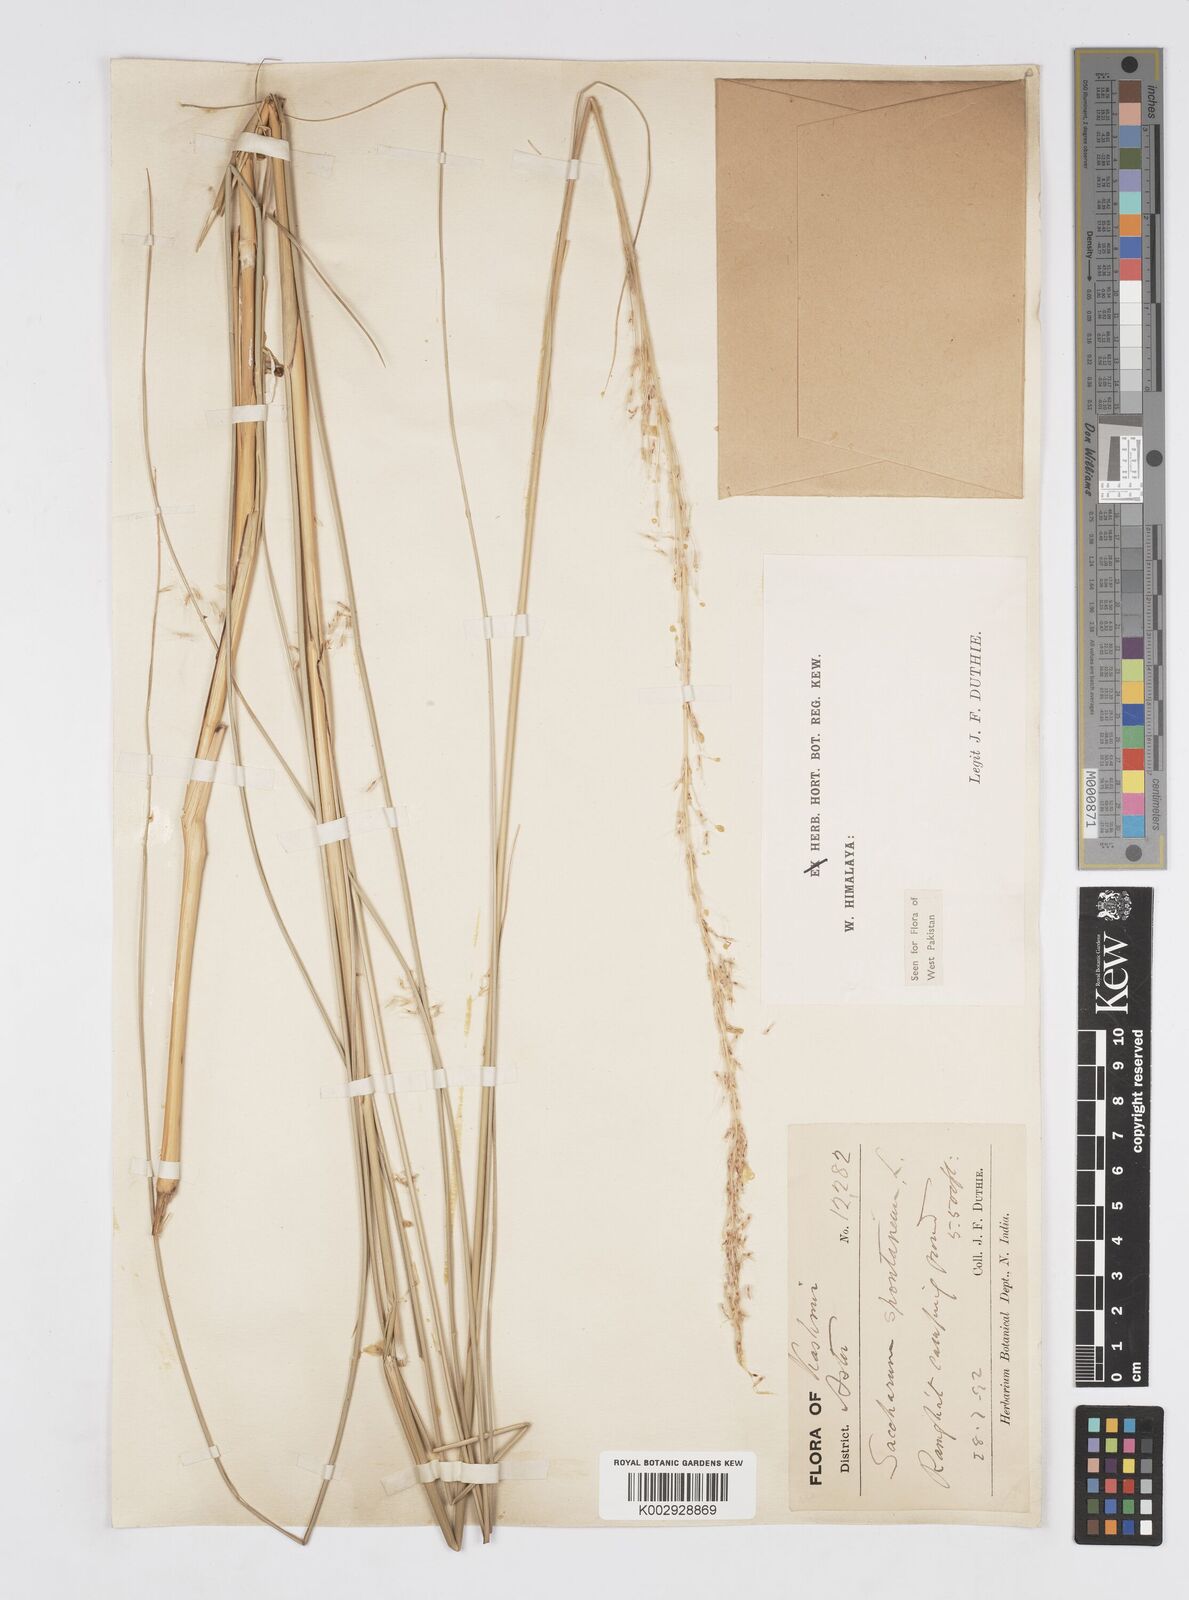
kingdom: Plantae
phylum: Tracheophyta
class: Liliopsida
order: Poales
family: Poaceae
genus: Saccharum
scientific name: Saccharum spontaneum
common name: Wild sugarcane
